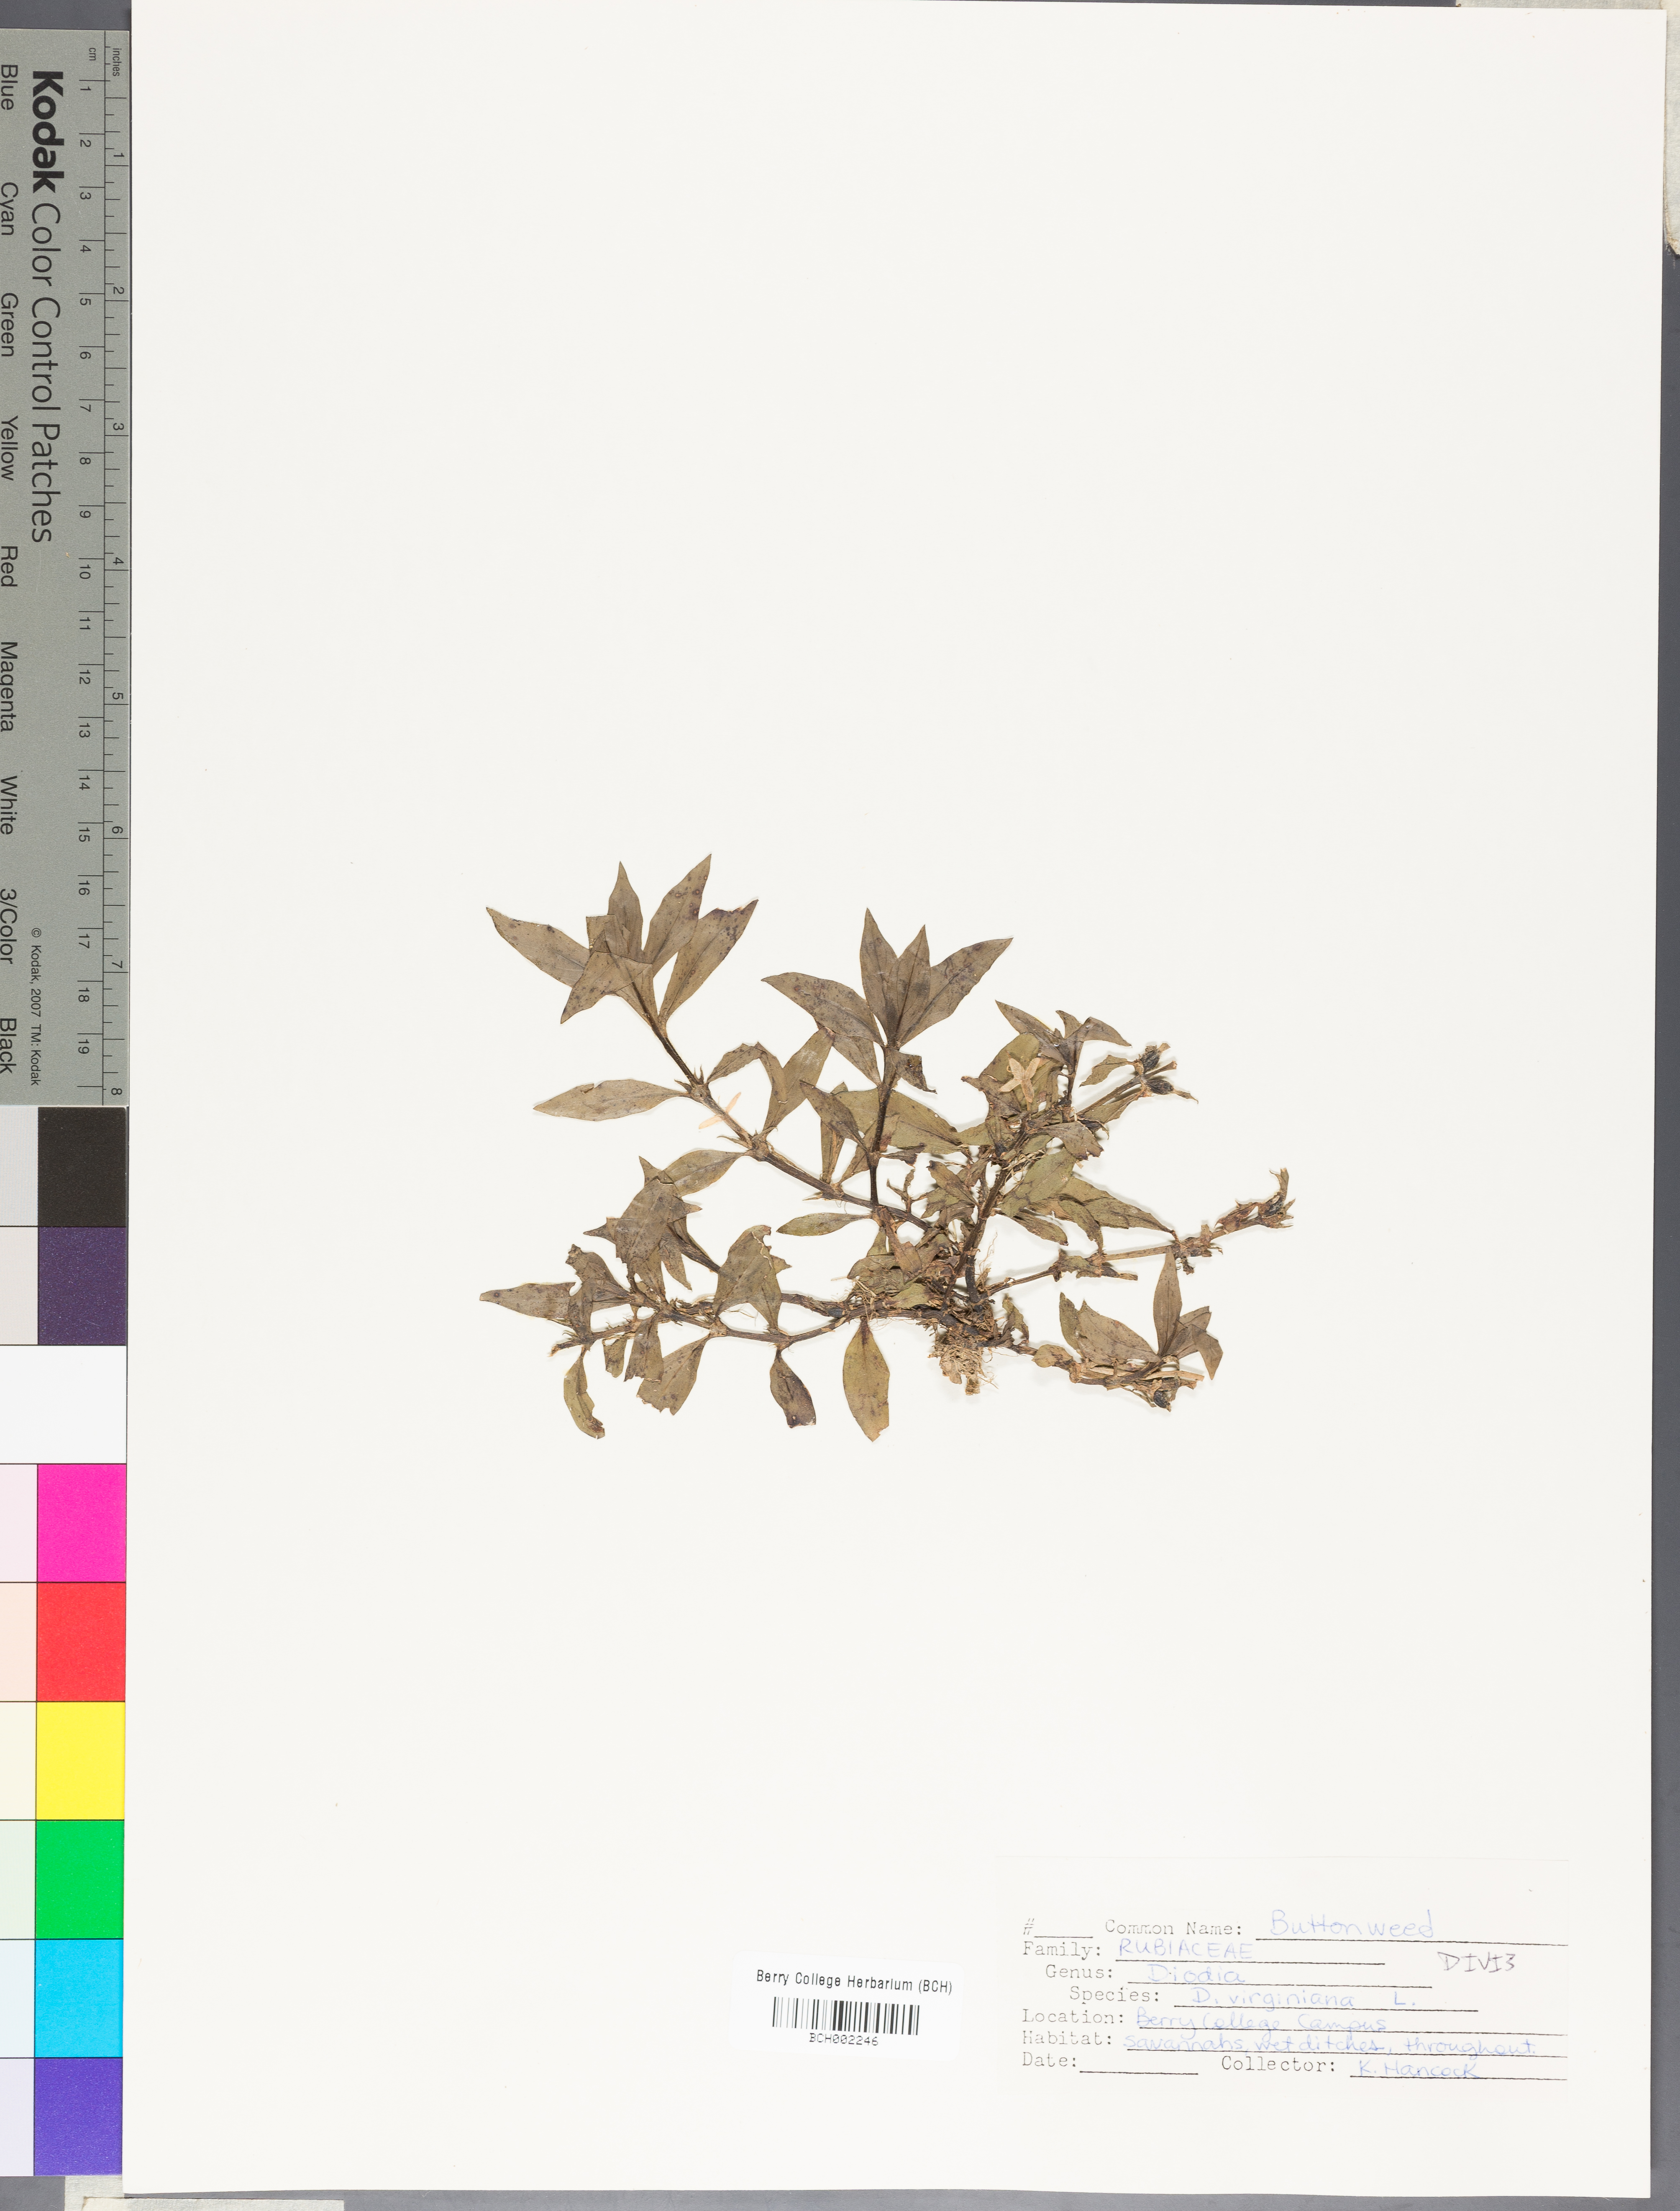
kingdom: Plantae
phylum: Tracheophyta
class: Magnoliopsida
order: Gentianales
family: Rubiaceae
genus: Diodia
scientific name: Diodia virginiana
